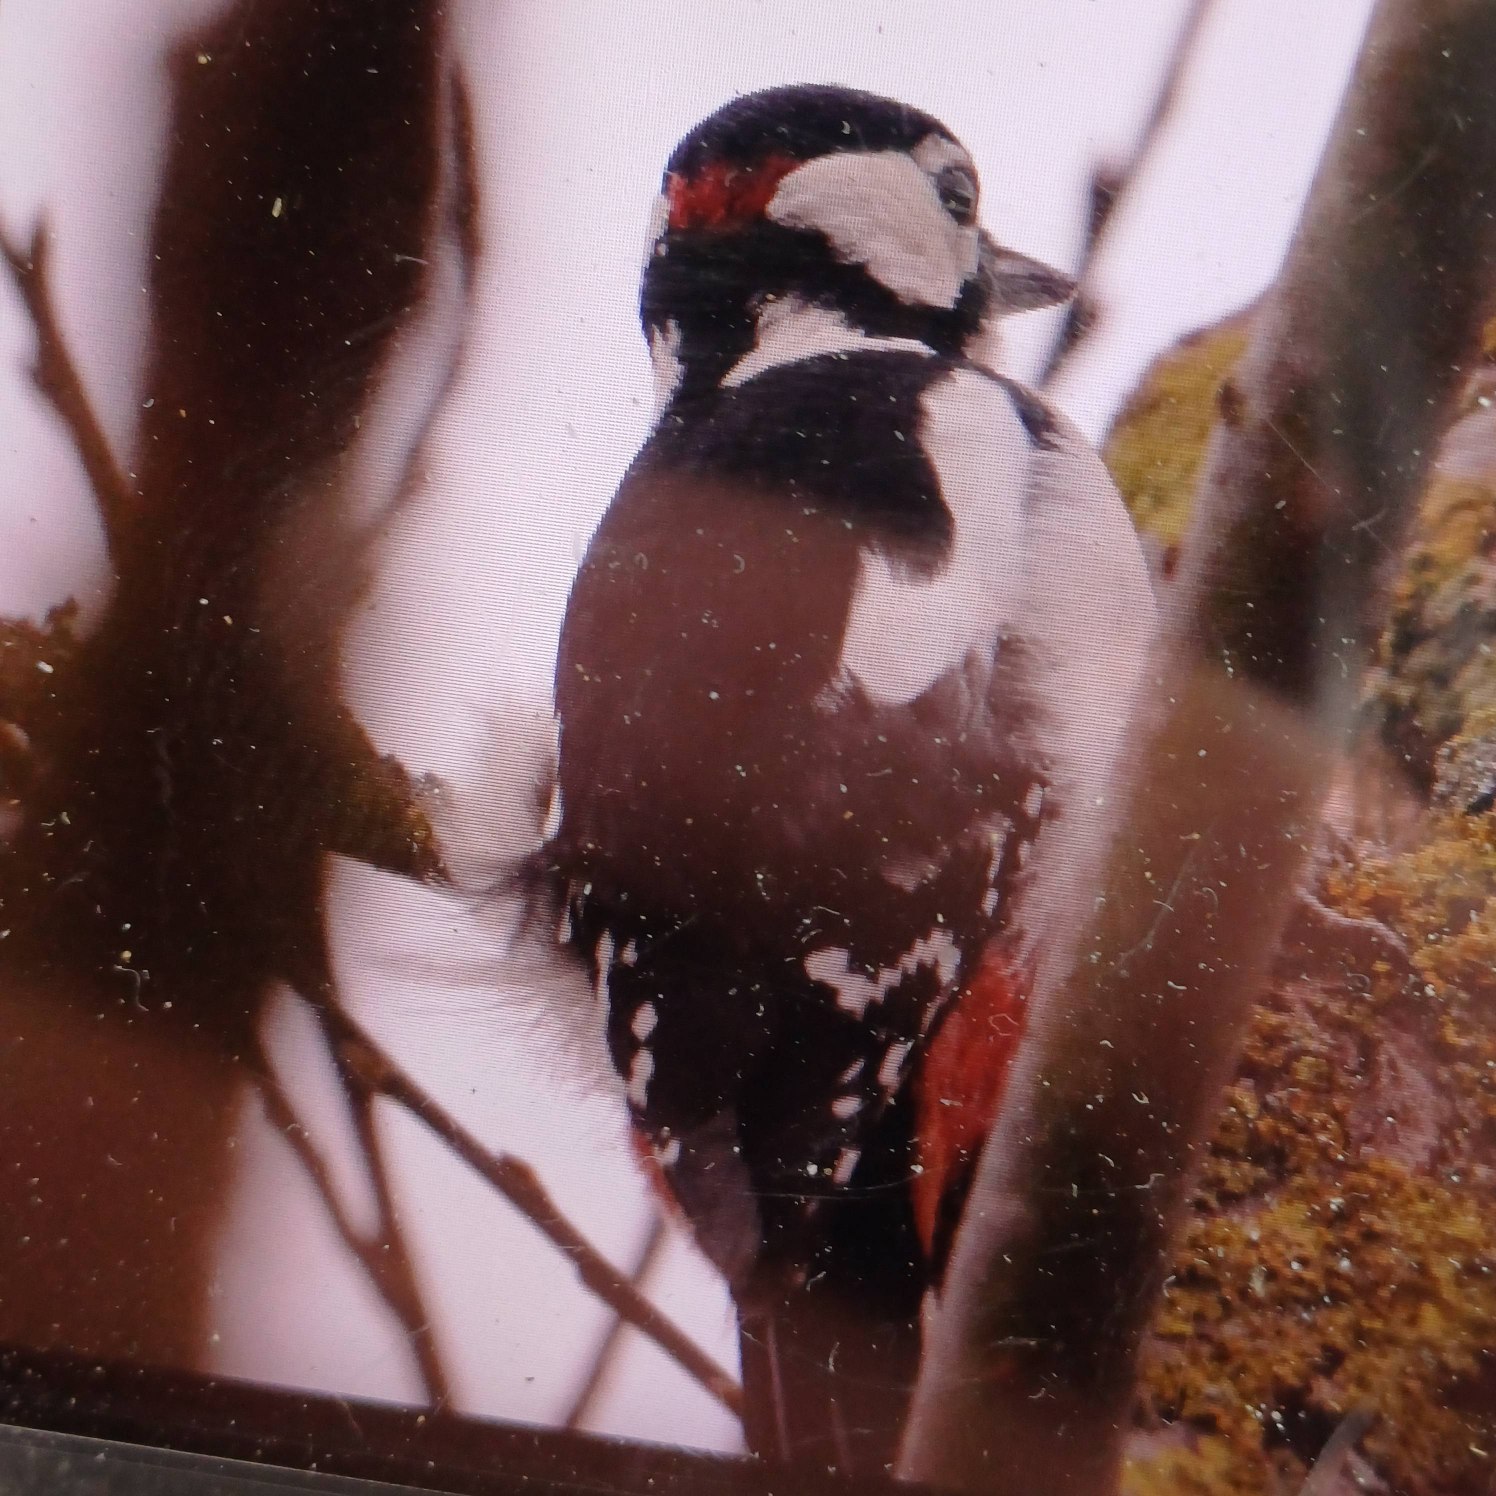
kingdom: Animalia
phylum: Chordata
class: Aves
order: Piciformes
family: Picidae
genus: Dendrocopos
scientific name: Dendrocopos major
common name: Stor flagspætte
